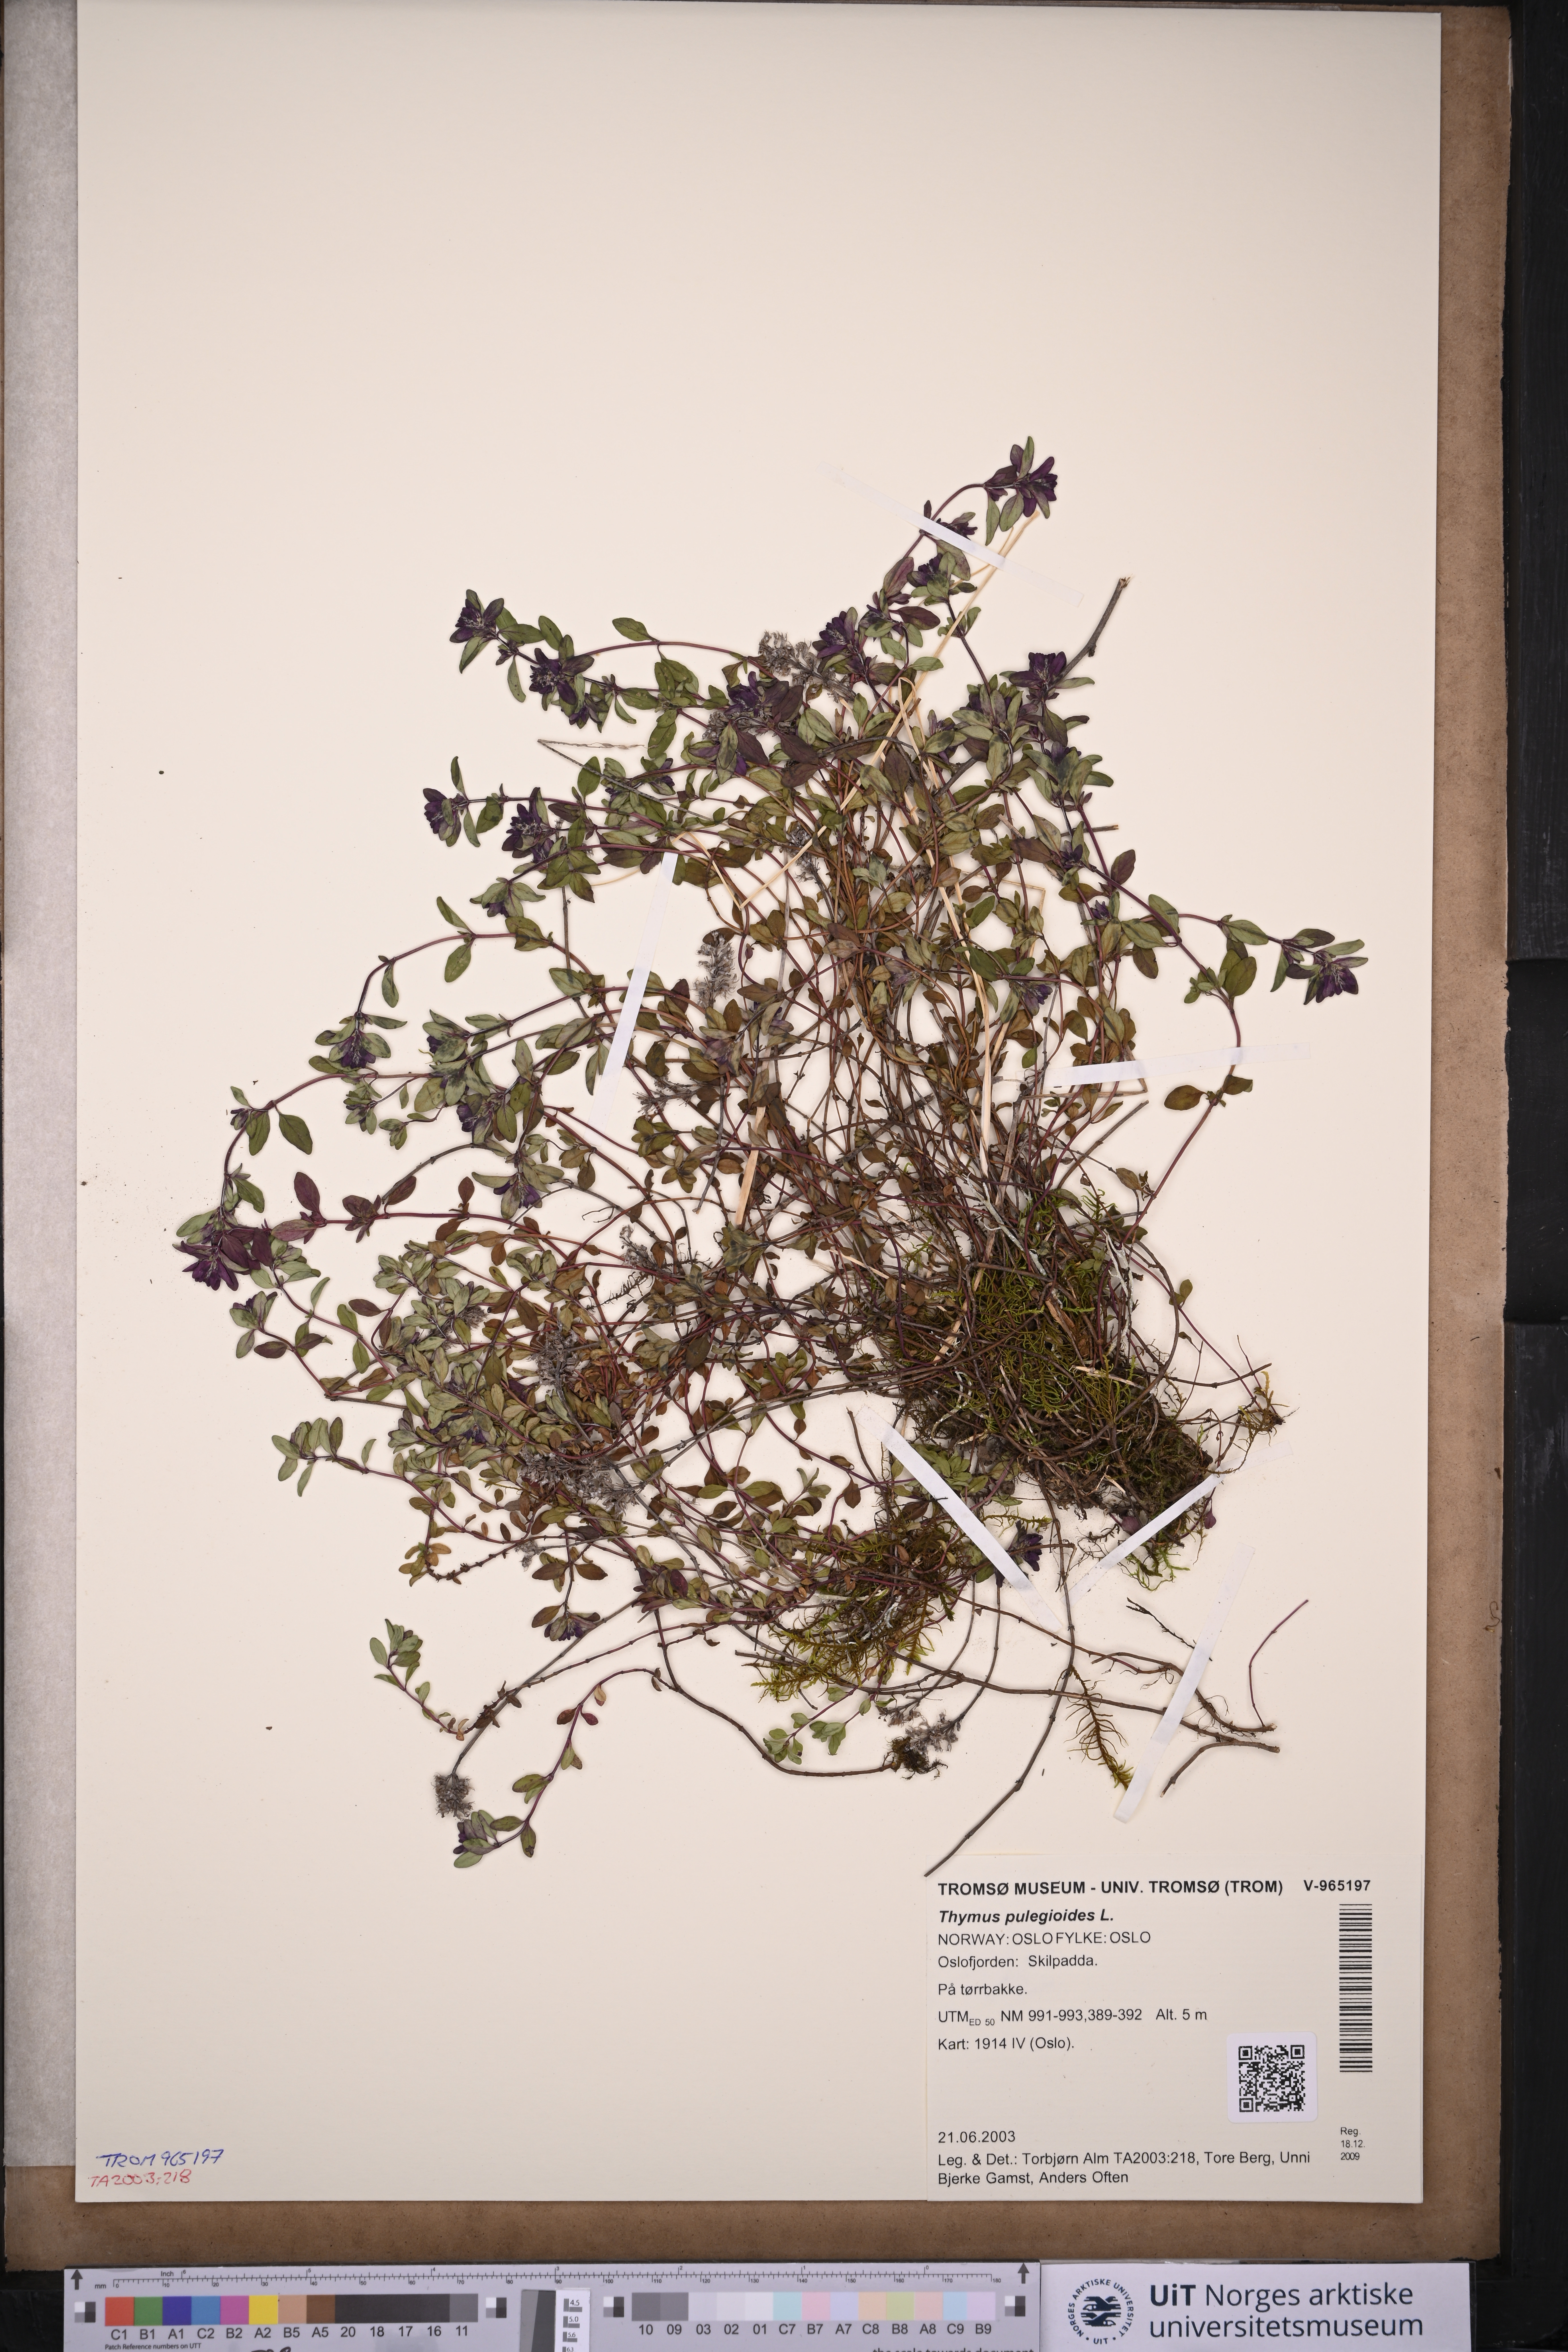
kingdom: Plantae
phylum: Tracheophyta
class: Magnoliopsida
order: Lamiales
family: Lamiaceae
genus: Thymus
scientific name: Thymus pulegioides
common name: Large thyme
